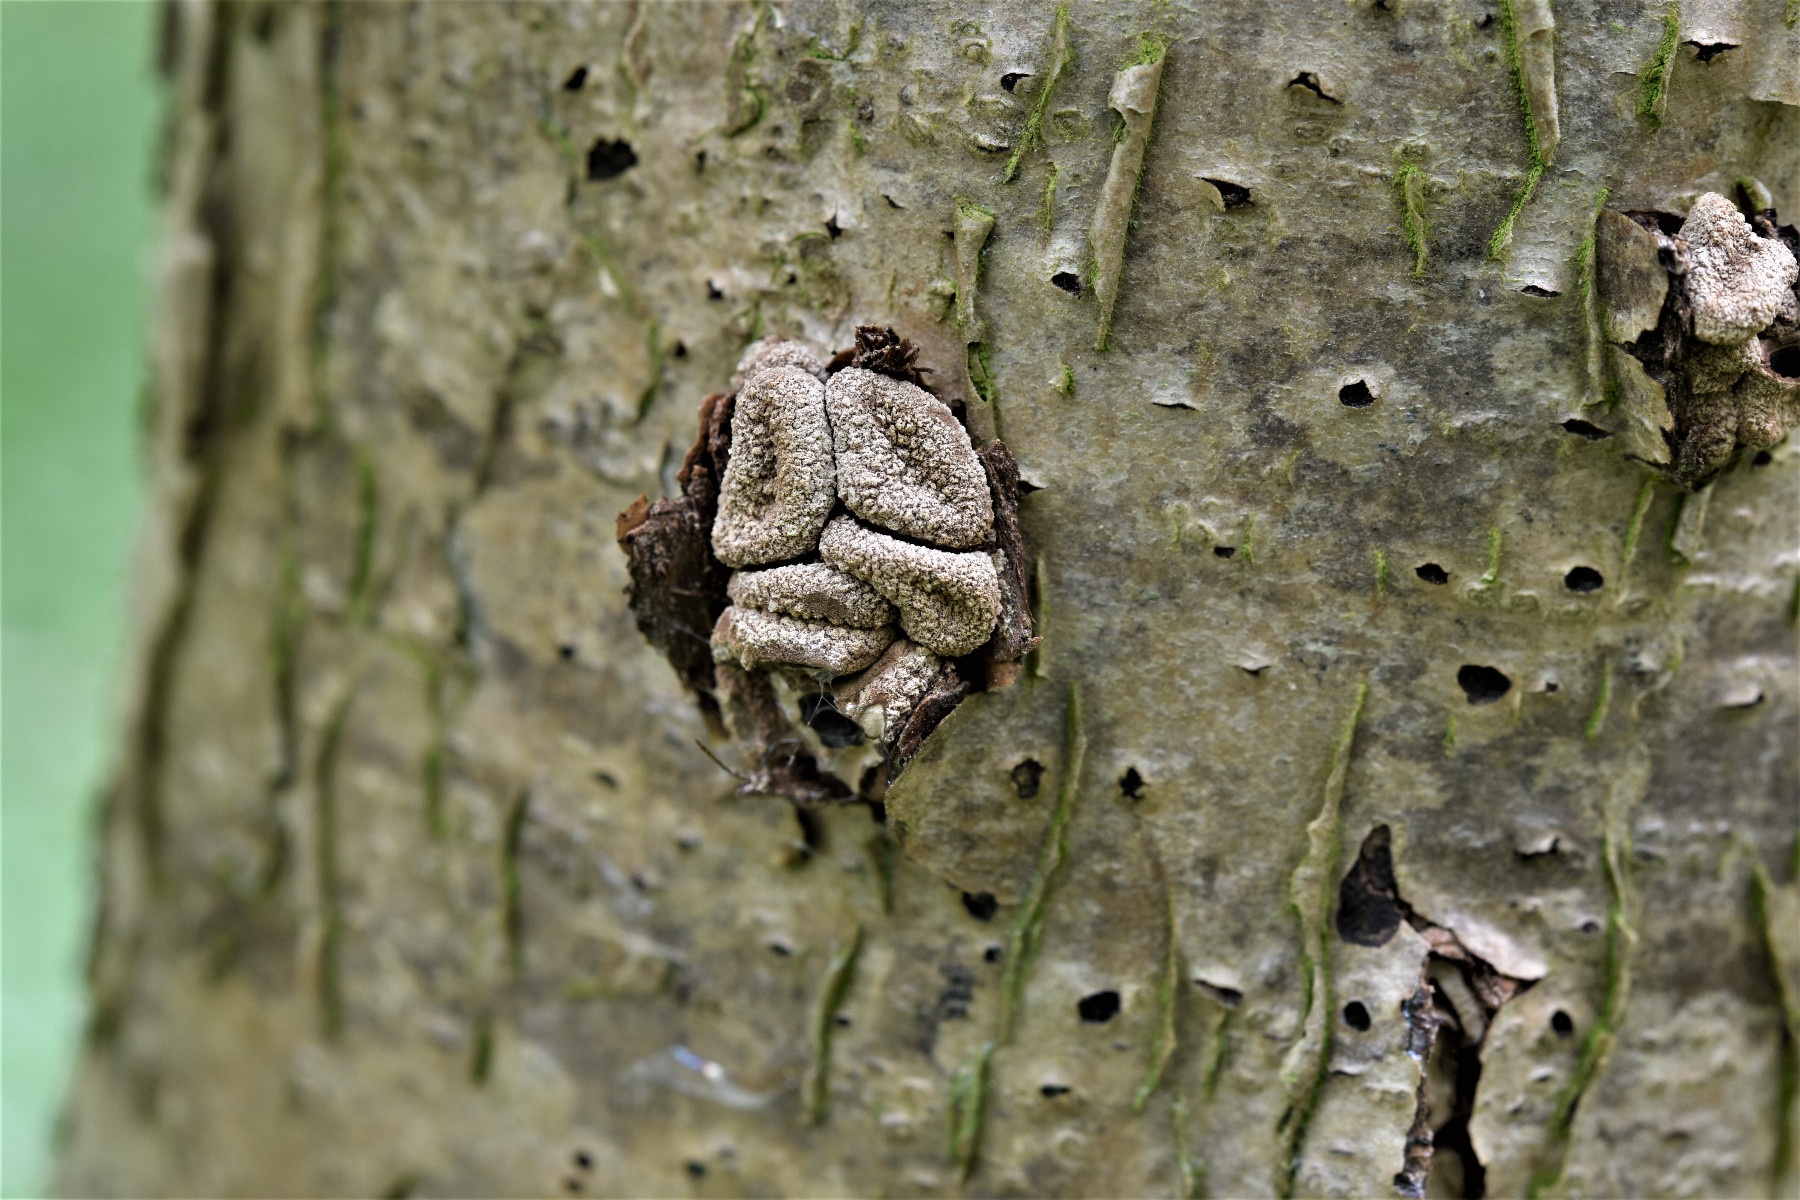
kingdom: Fungi
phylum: Ascomycota
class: Leotiomycetes
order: Helotiales
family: Cenangiaceae
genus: Encoelia
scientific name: Encoelia furfuracea
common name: hassel-læderskive
